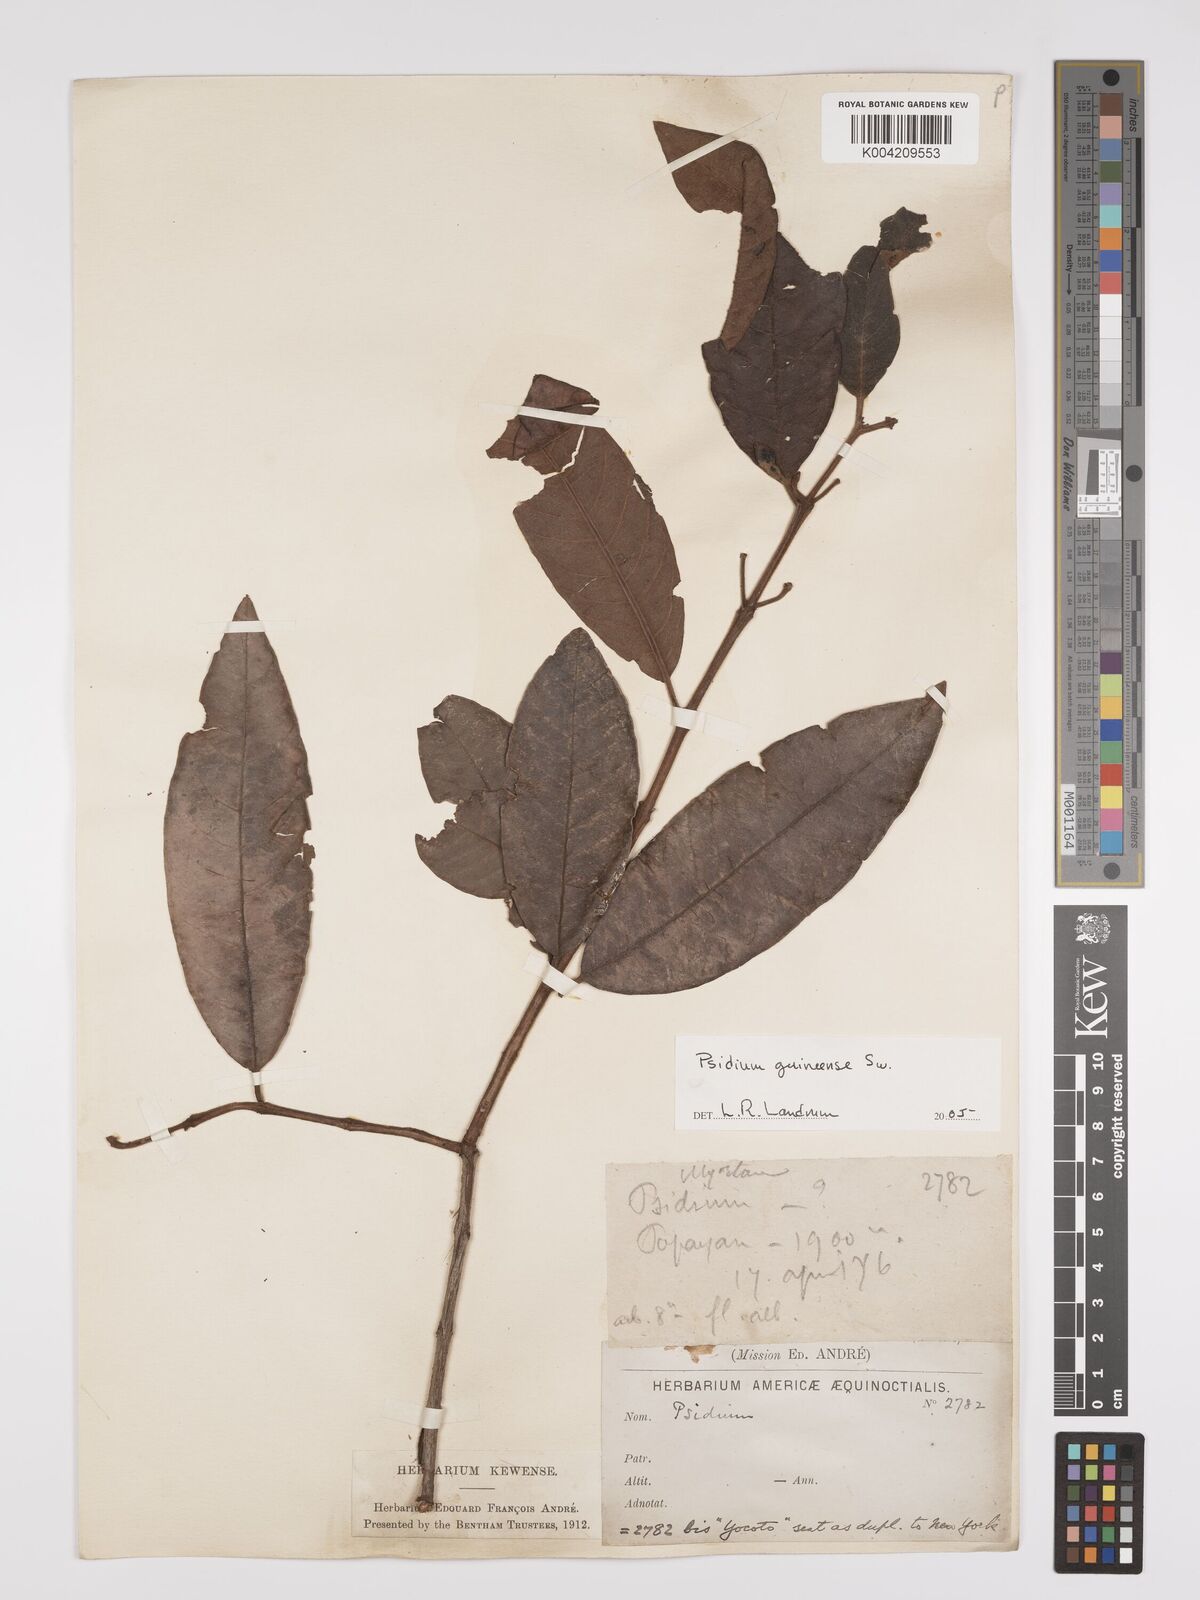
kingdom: Plantae
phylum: Tracheophyta
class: Magnoliopsida
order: Myrtales
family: Myrtaceae
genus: Psidium
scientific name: Psidium guineense
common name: Brazilian guava
